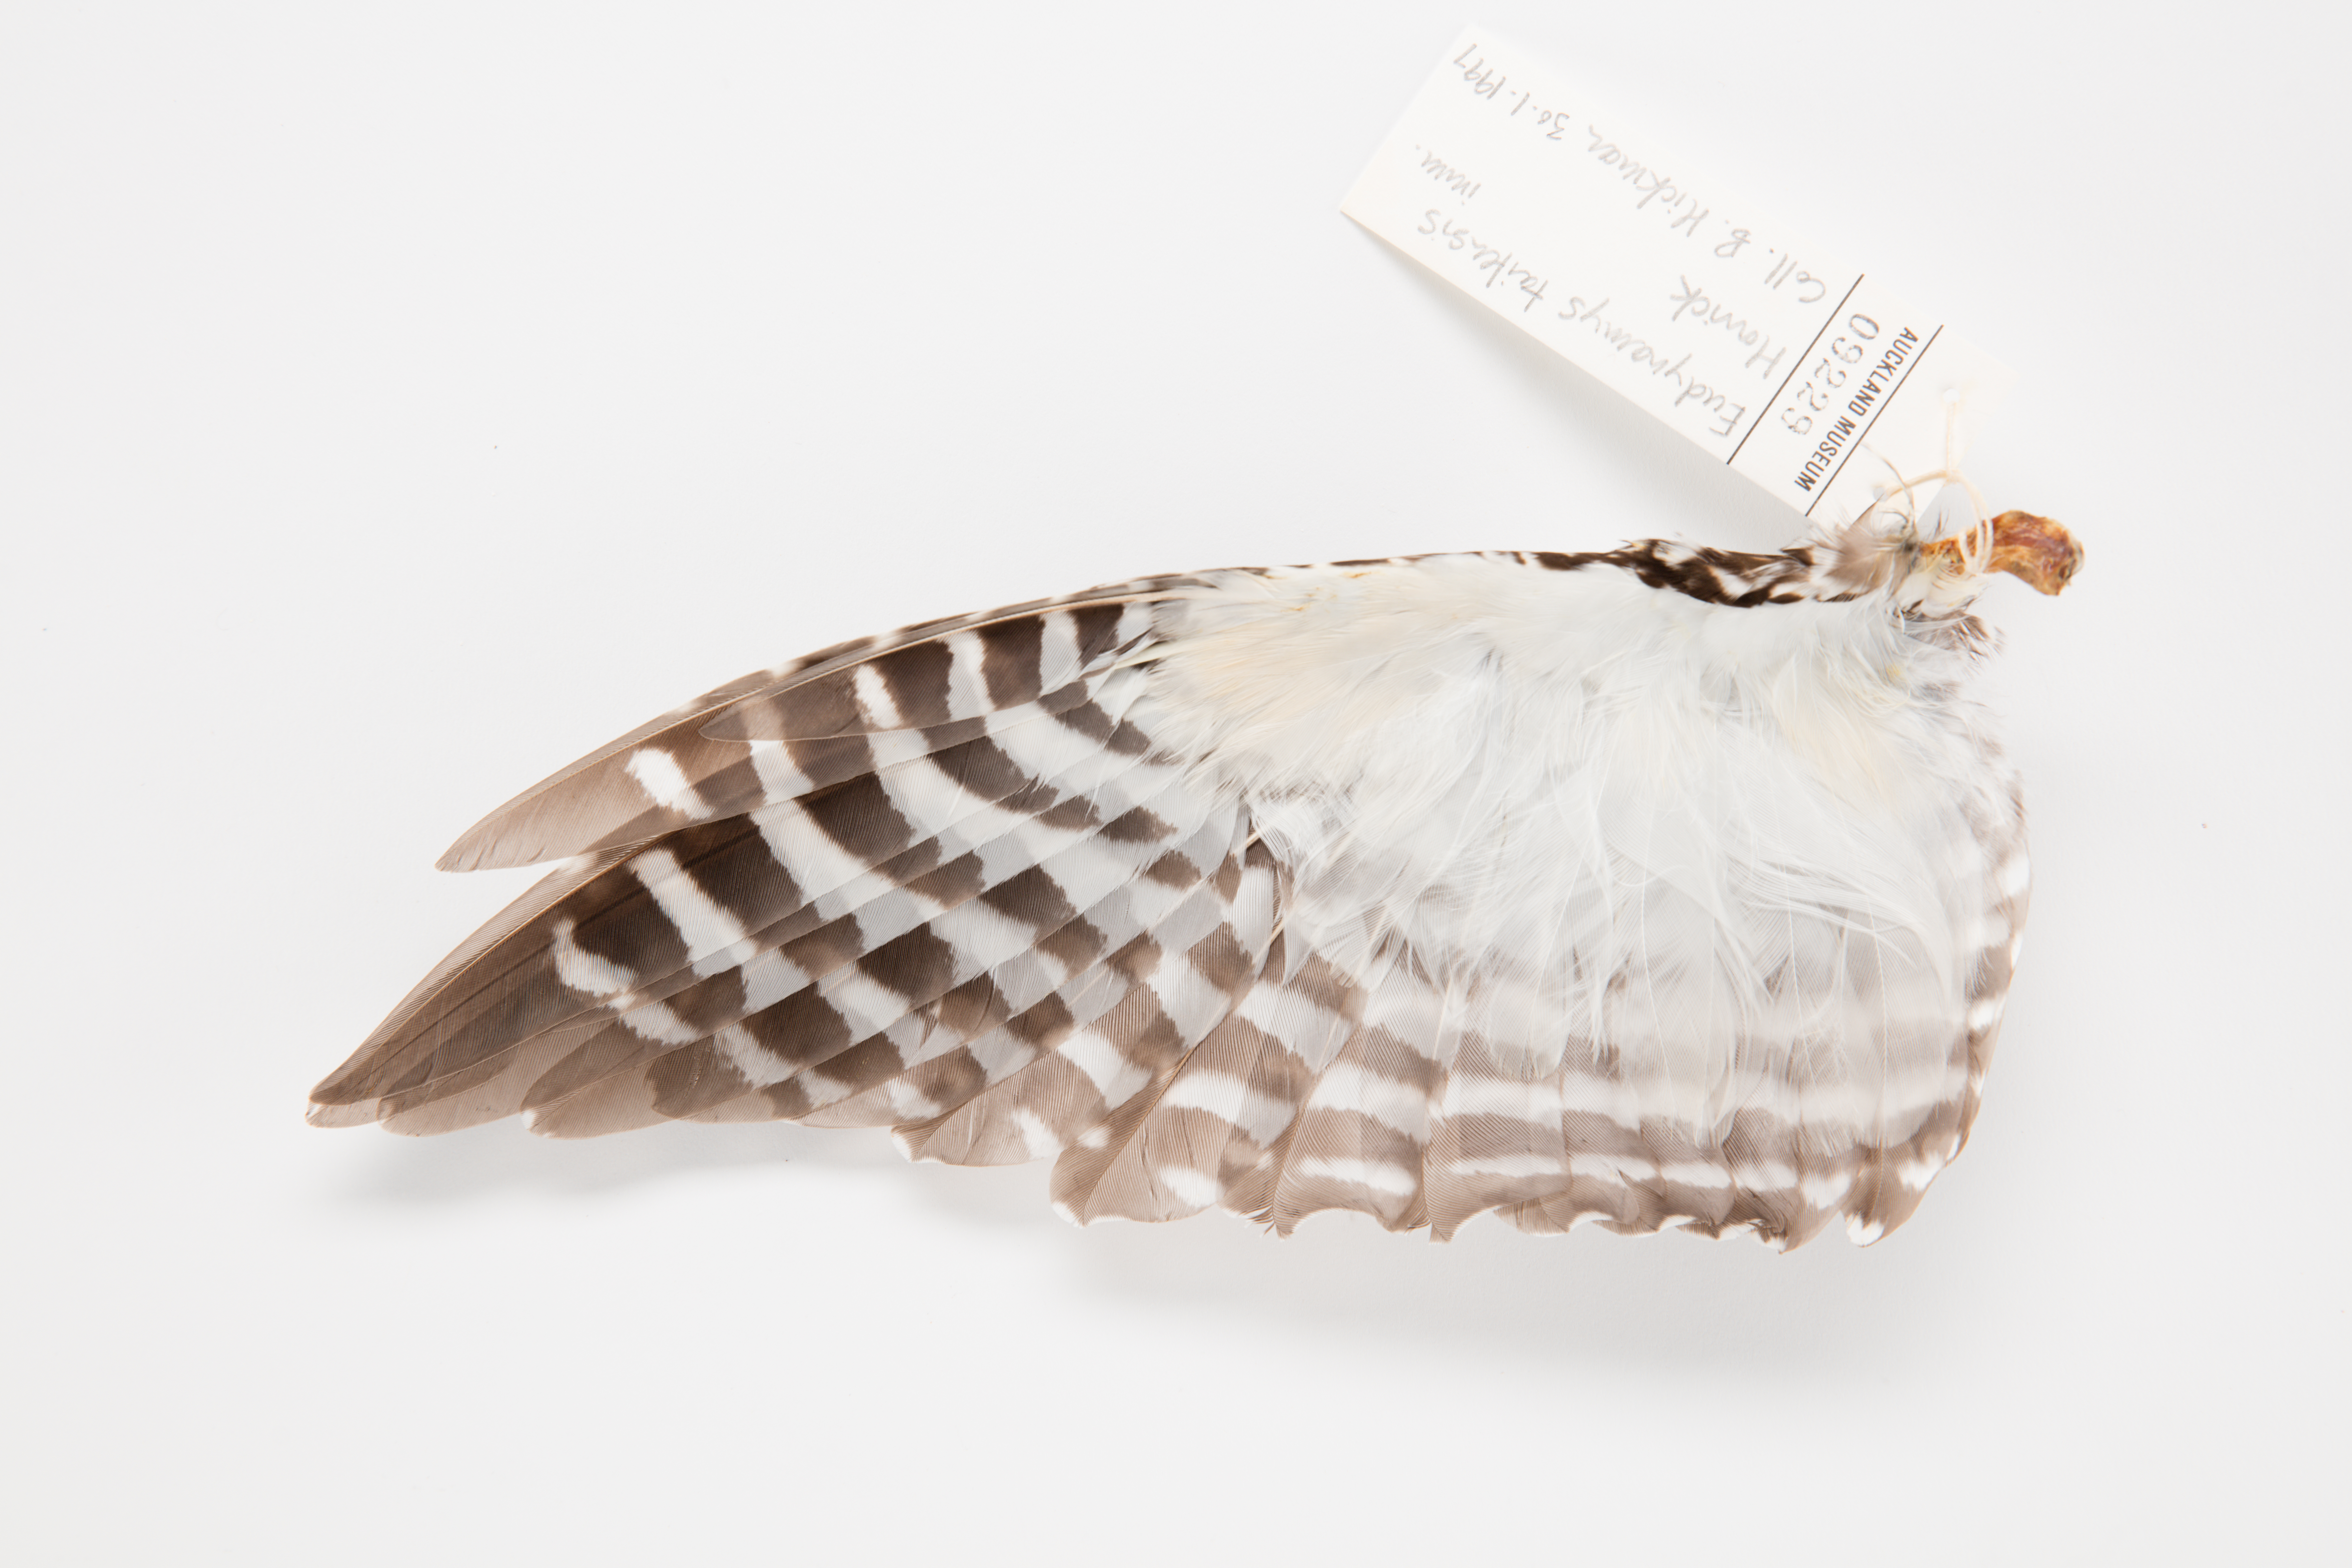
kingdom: Animalia
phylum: Chordata
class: Aves
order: Cuculiformes
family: Cuculidae
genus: Urodynamis
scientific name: Urodynamis taitensis
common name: Long-tailed koel
